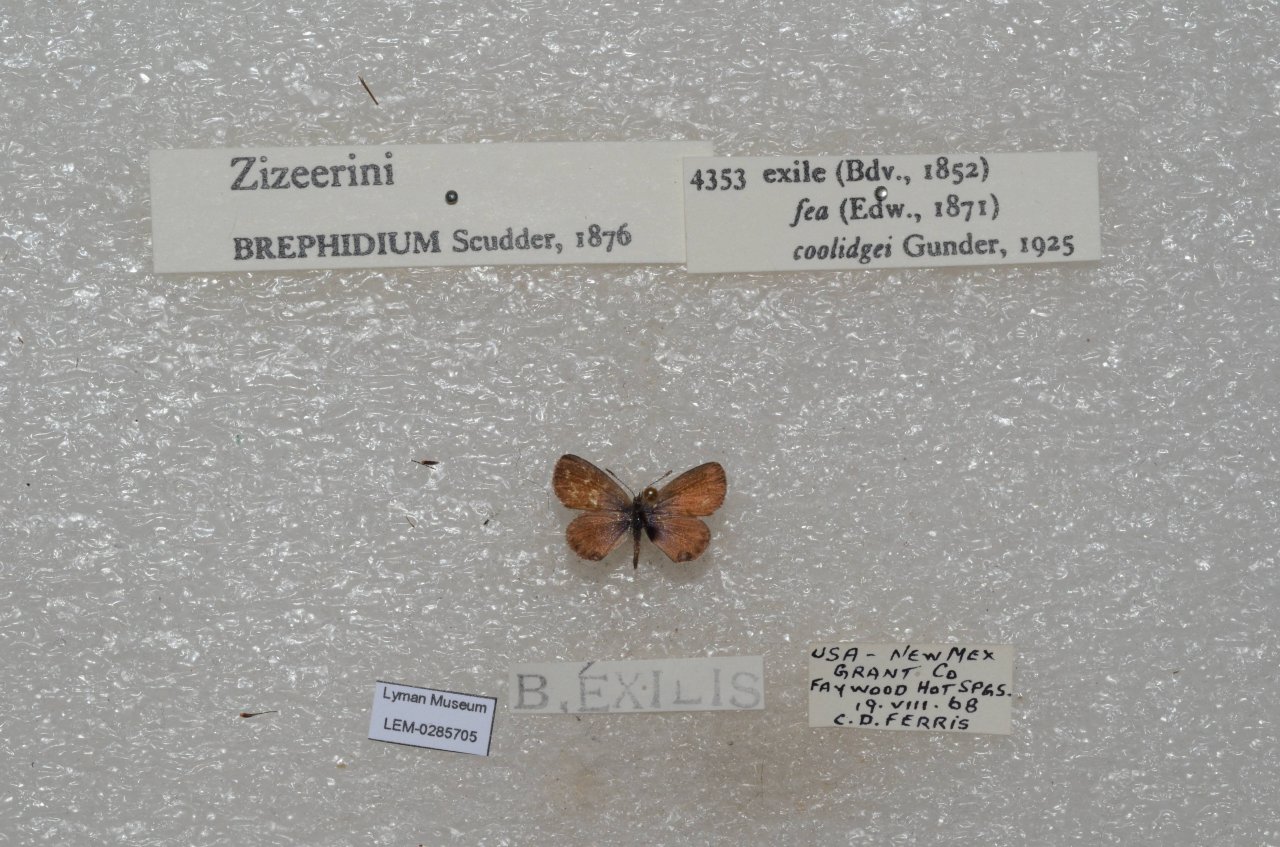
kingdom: Animalia
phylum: Arthropoda
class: Insecta
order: Lepidoptera
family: Lycaenidae
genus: Brephidium
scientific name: Brephidium exilis
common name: Western Pygmy-Blue
